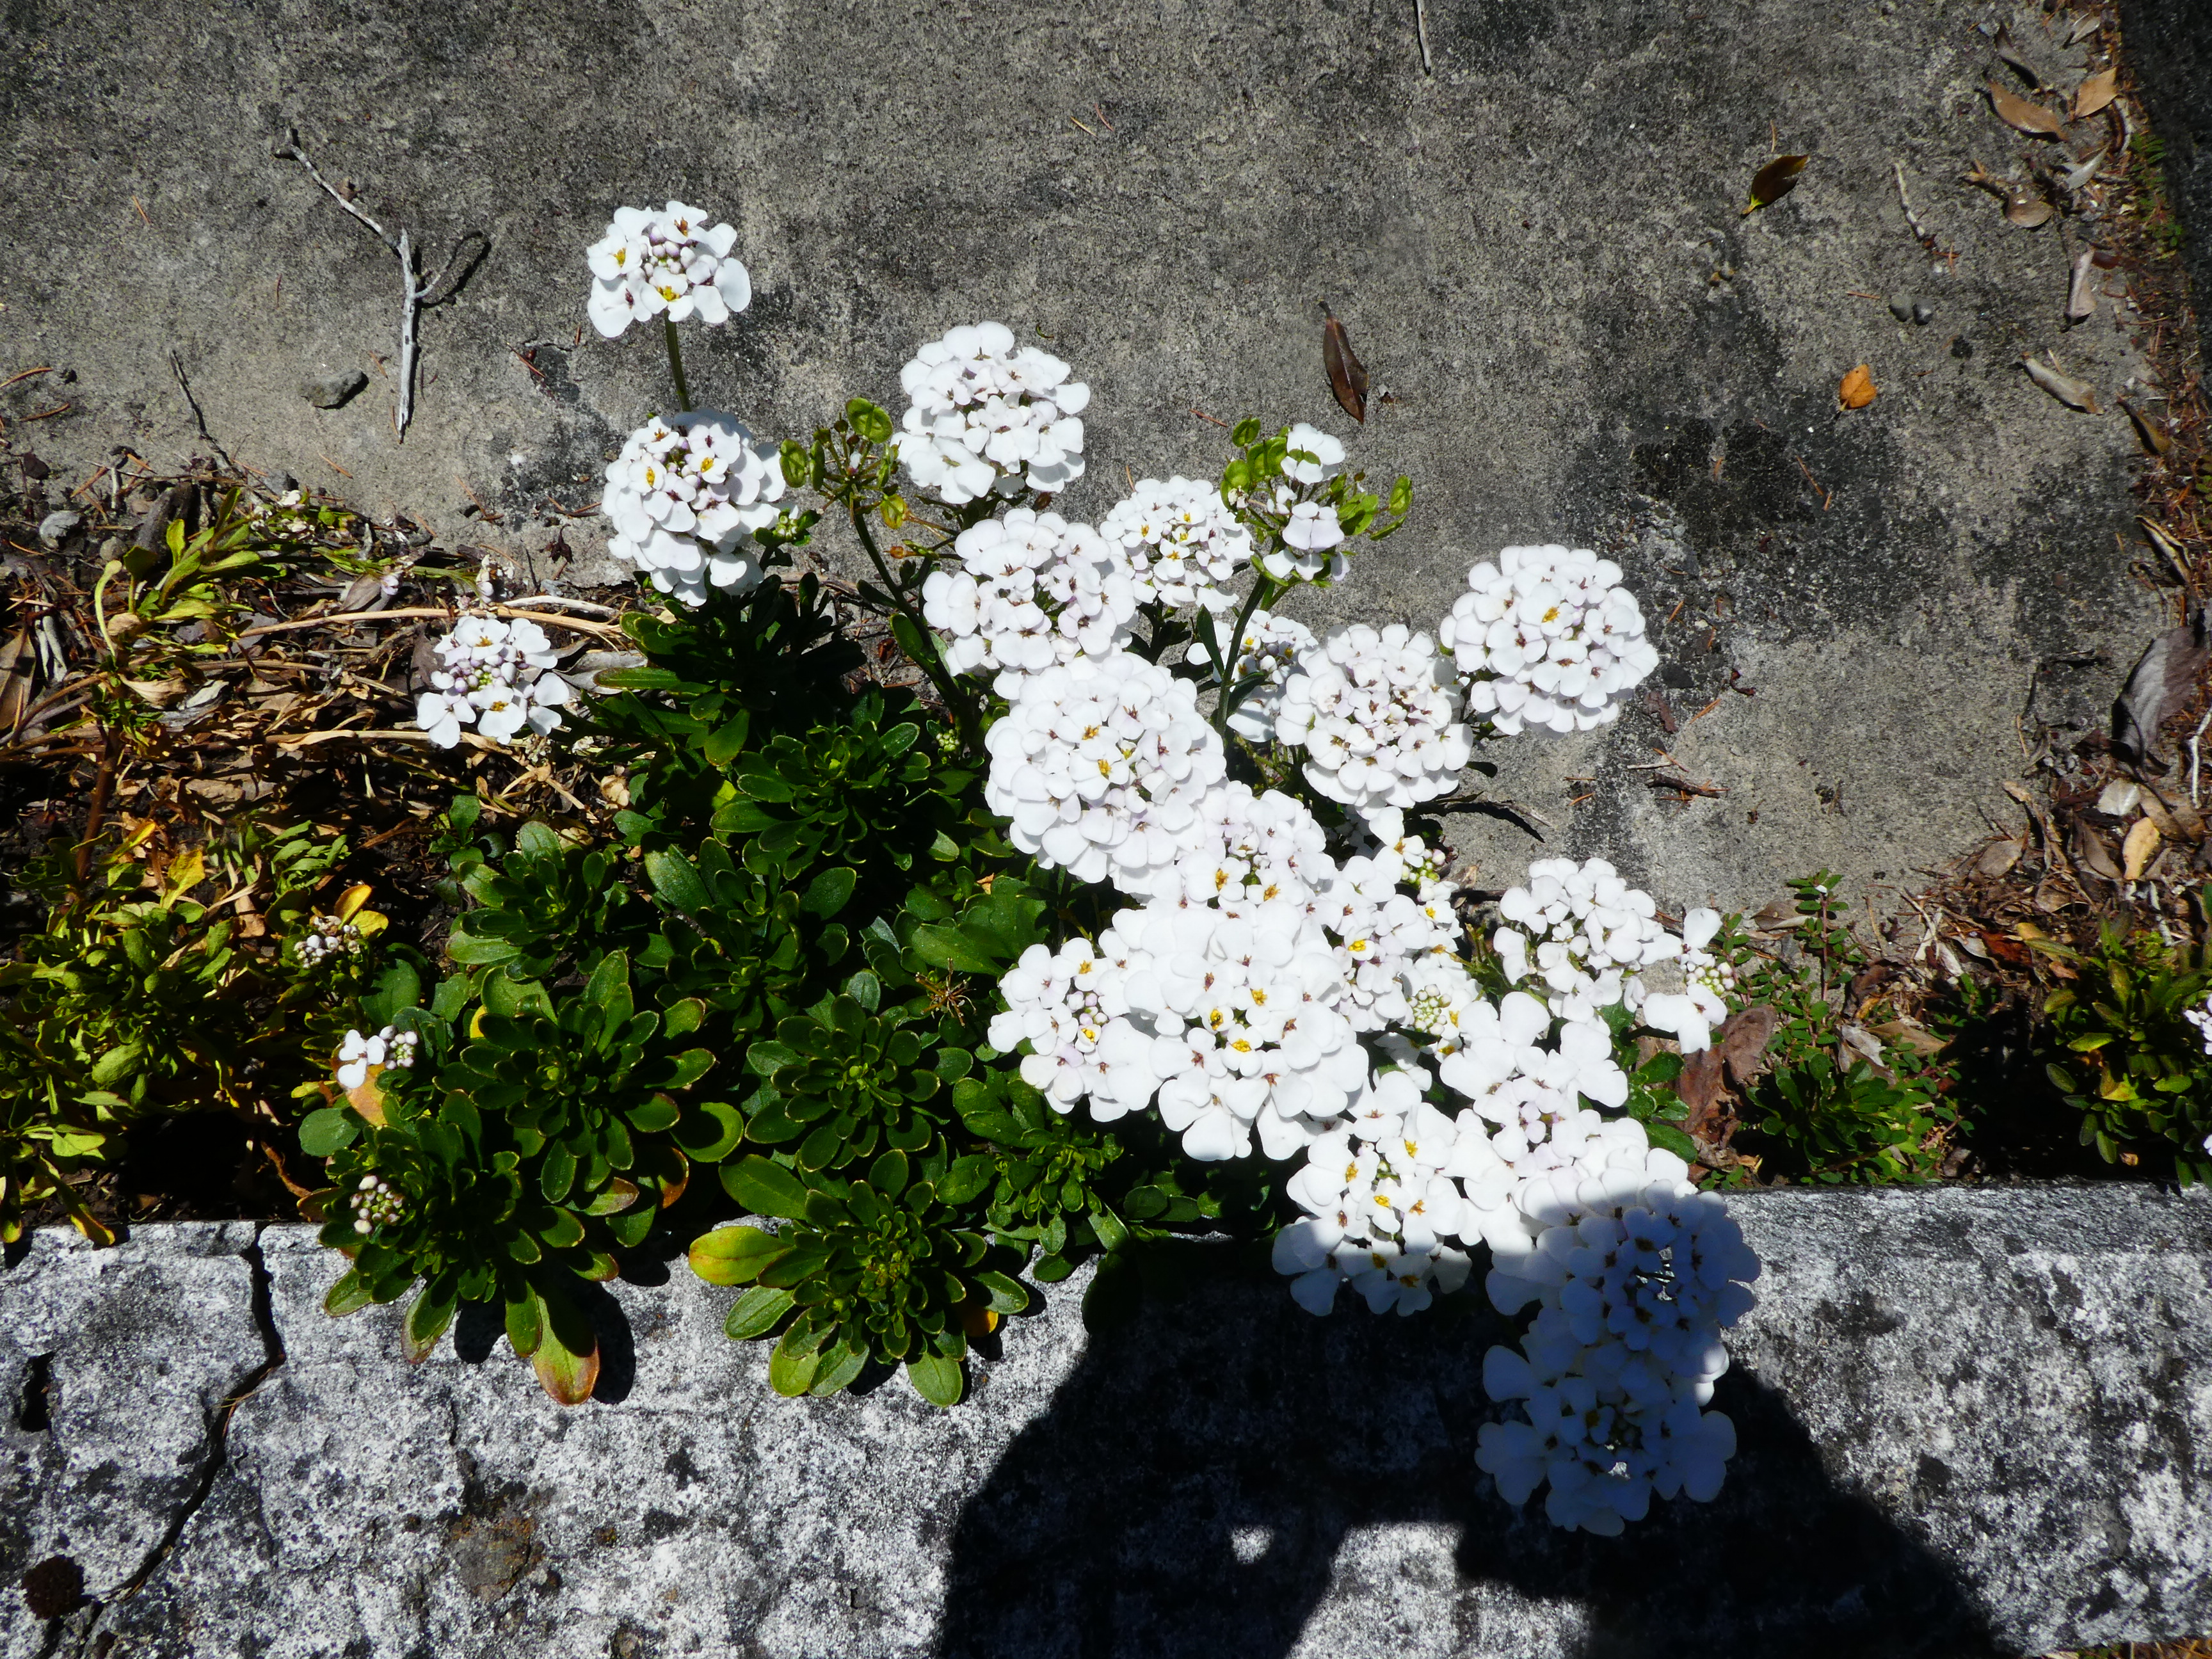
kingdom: Plantae
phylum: Tracheophyta
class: Magnoliopsida
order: Brassicales
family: Brassicaceae
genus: Iberis
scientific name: Iberis umbellata
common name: Globe candytuft
